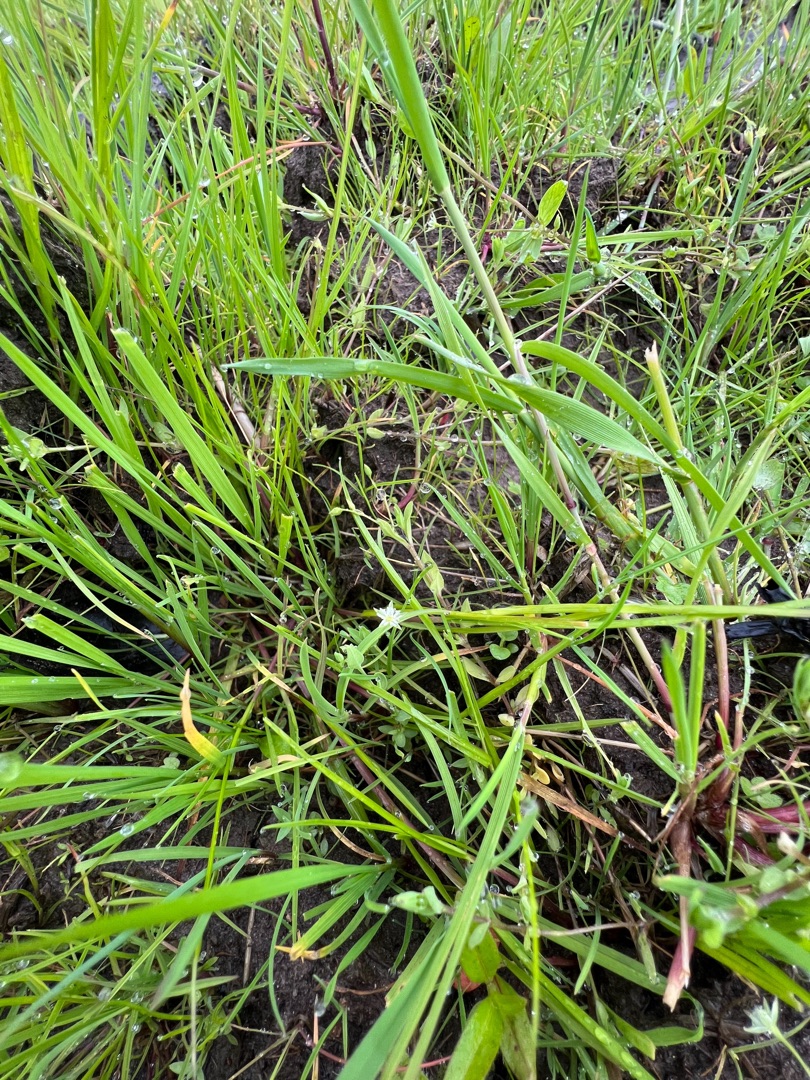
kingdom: Plantae
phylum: Tracheophyta
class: Magnoliopsida
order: Caryophyllales
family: Caryophyllaceae
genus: Stellaria
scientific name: Stellaria alsine
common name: Sump-fladstjerne
